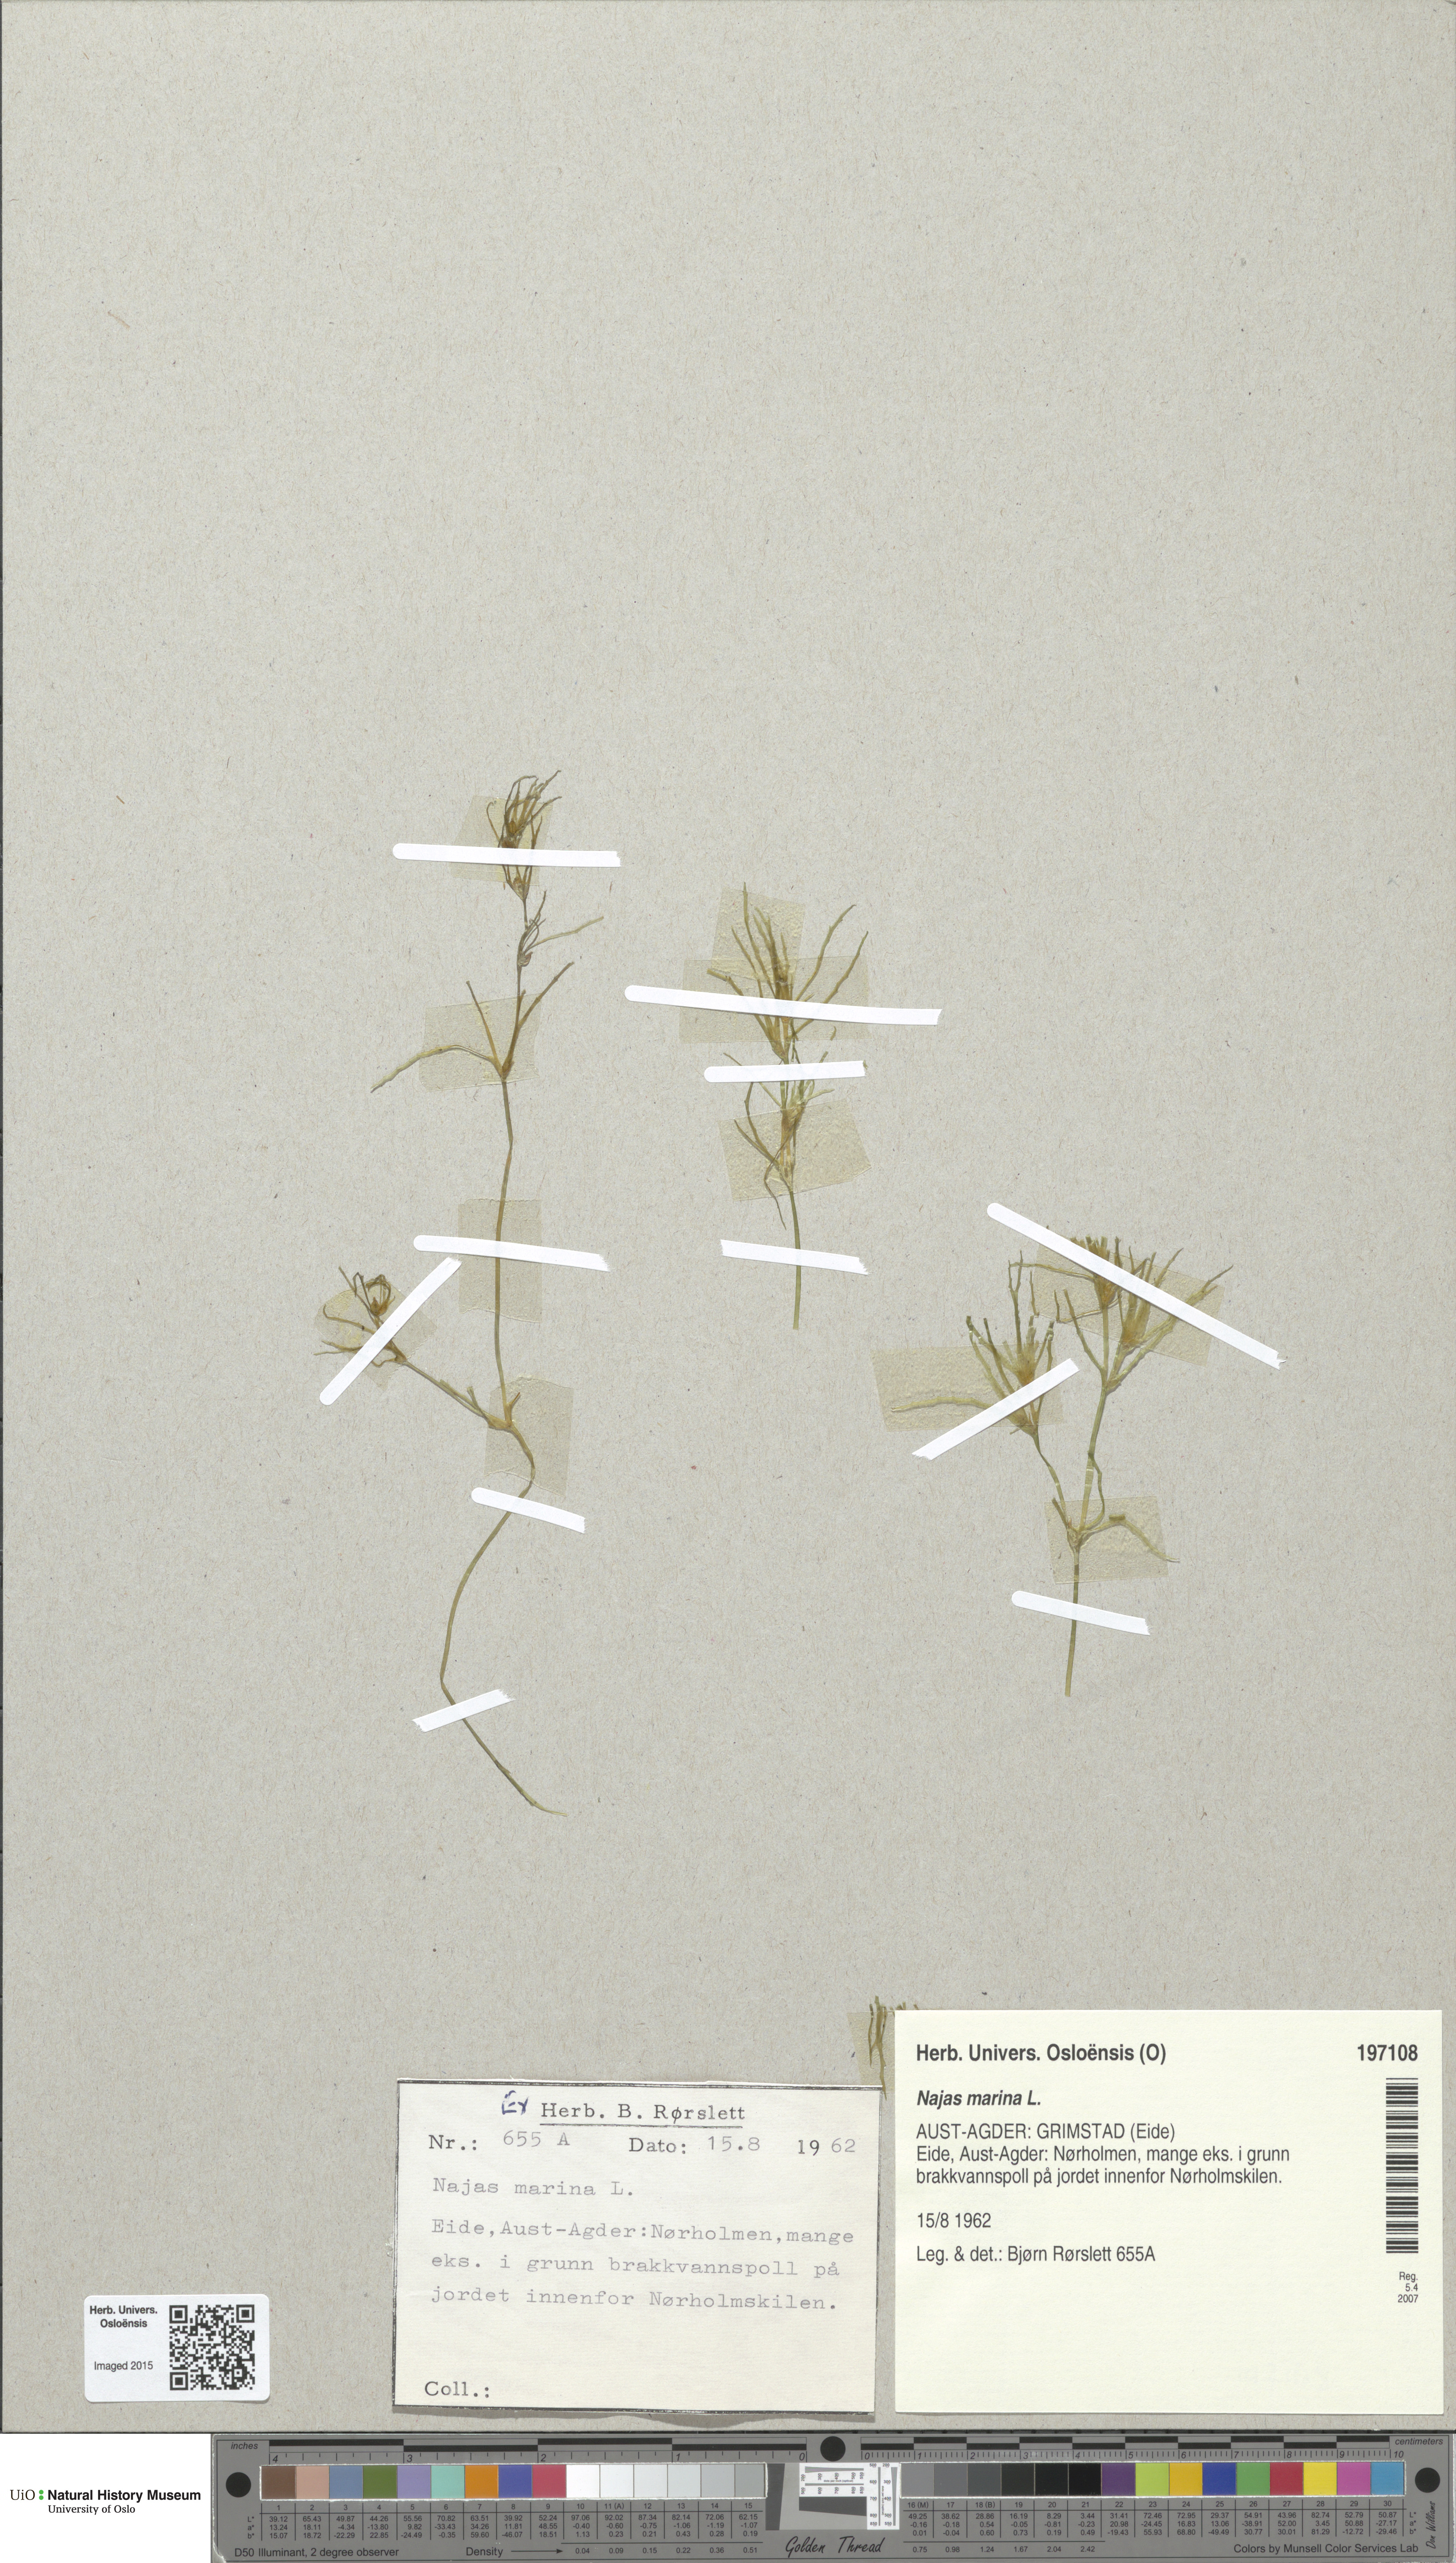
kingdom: Plantae
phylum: Tracheophyta
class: Liliopsida
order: Alismatales
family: Hydrocharitaceae
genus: Najas
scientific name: Najas marina
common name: Holly-leaved naiad
